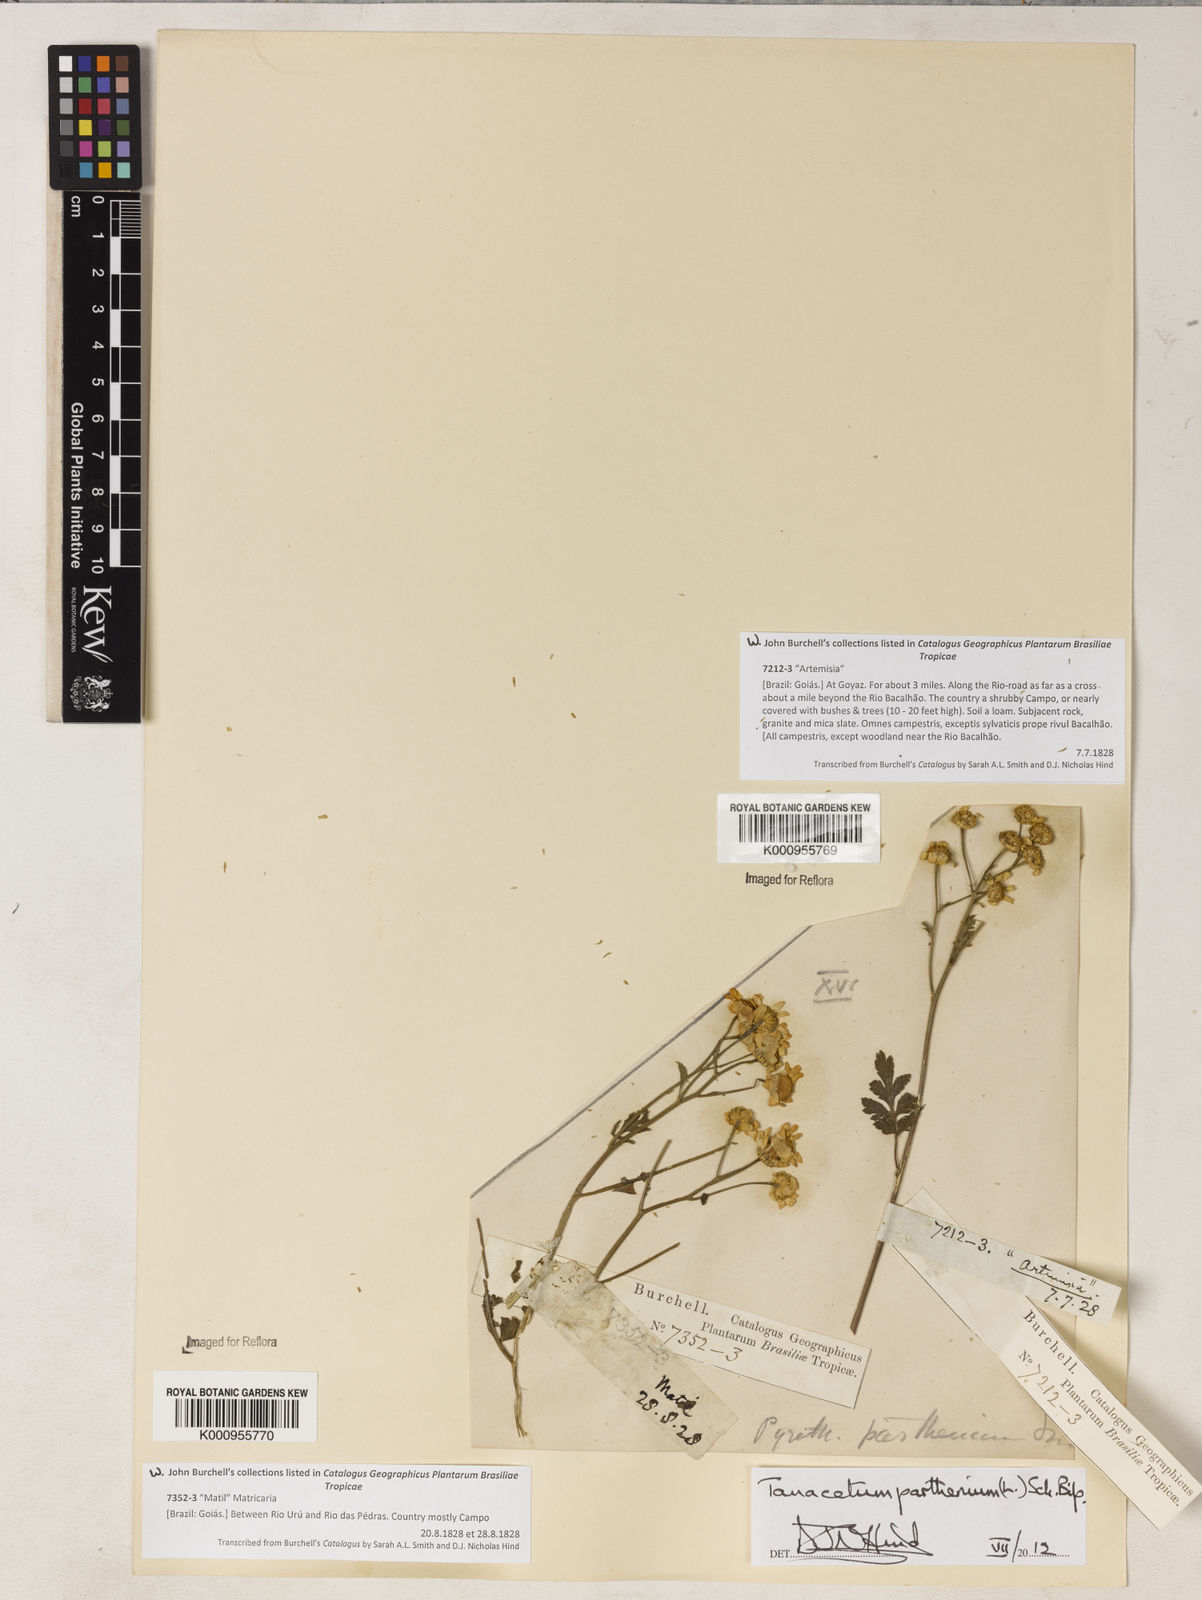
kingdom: Plantae
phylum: Tracheophyta
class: Magnoliopsida
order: Asterales
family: Asteraceae
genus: Tanacetum
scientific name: Tanacetum parthenium
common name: Feverfew
